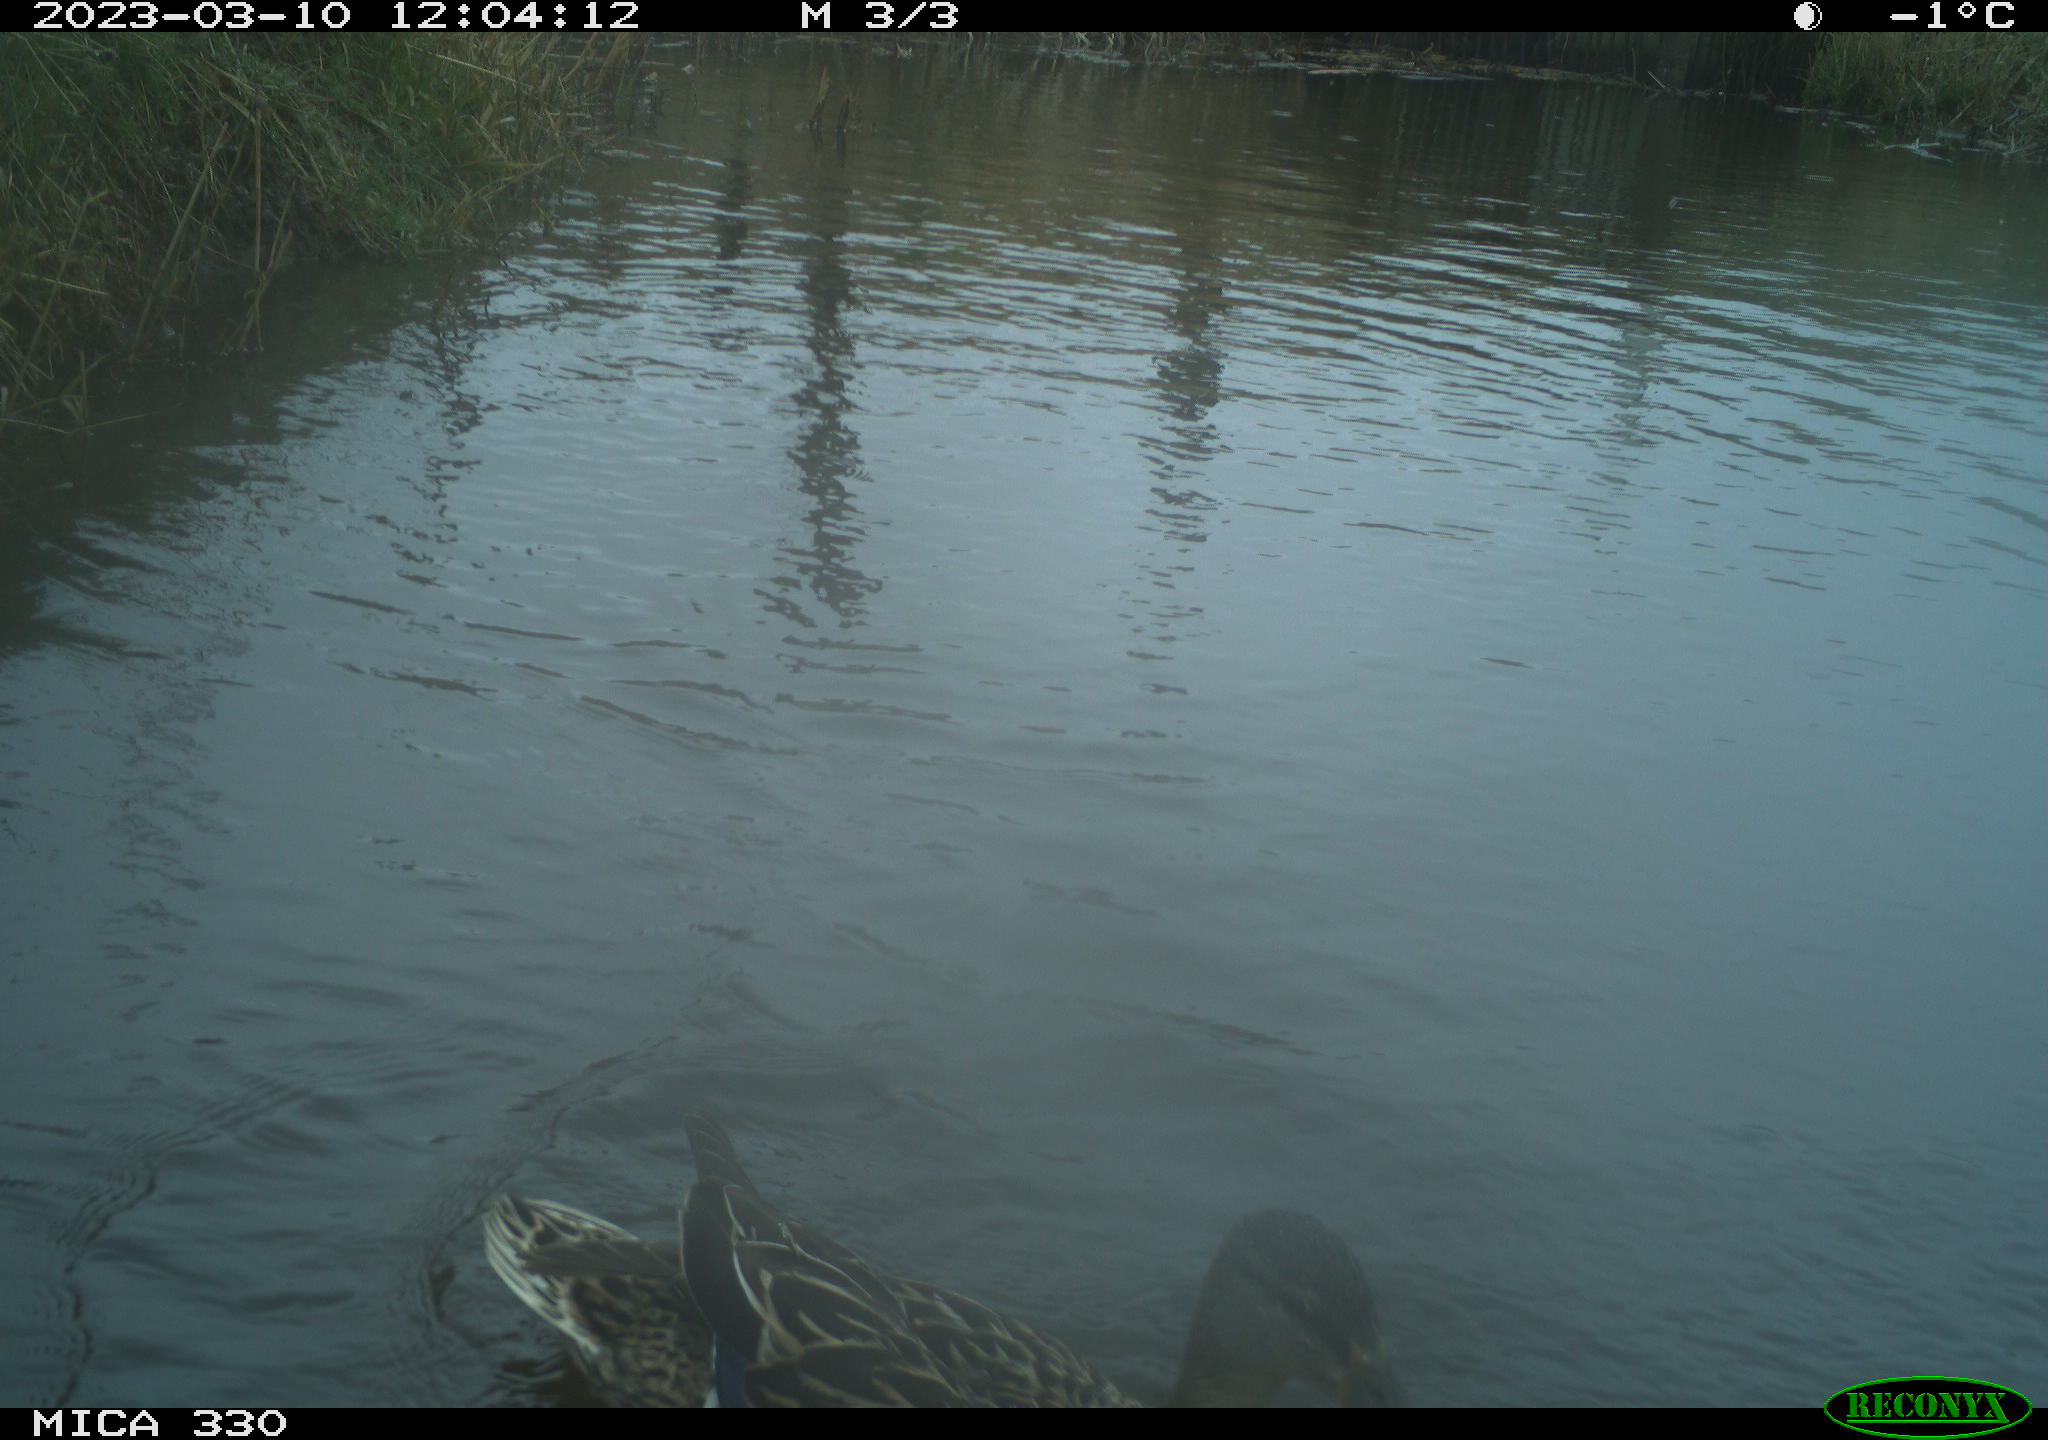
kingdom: Animalia
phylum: Chordata
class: Aves
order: Anseriformes
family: Anatidae
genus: Anas
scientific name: Anas
